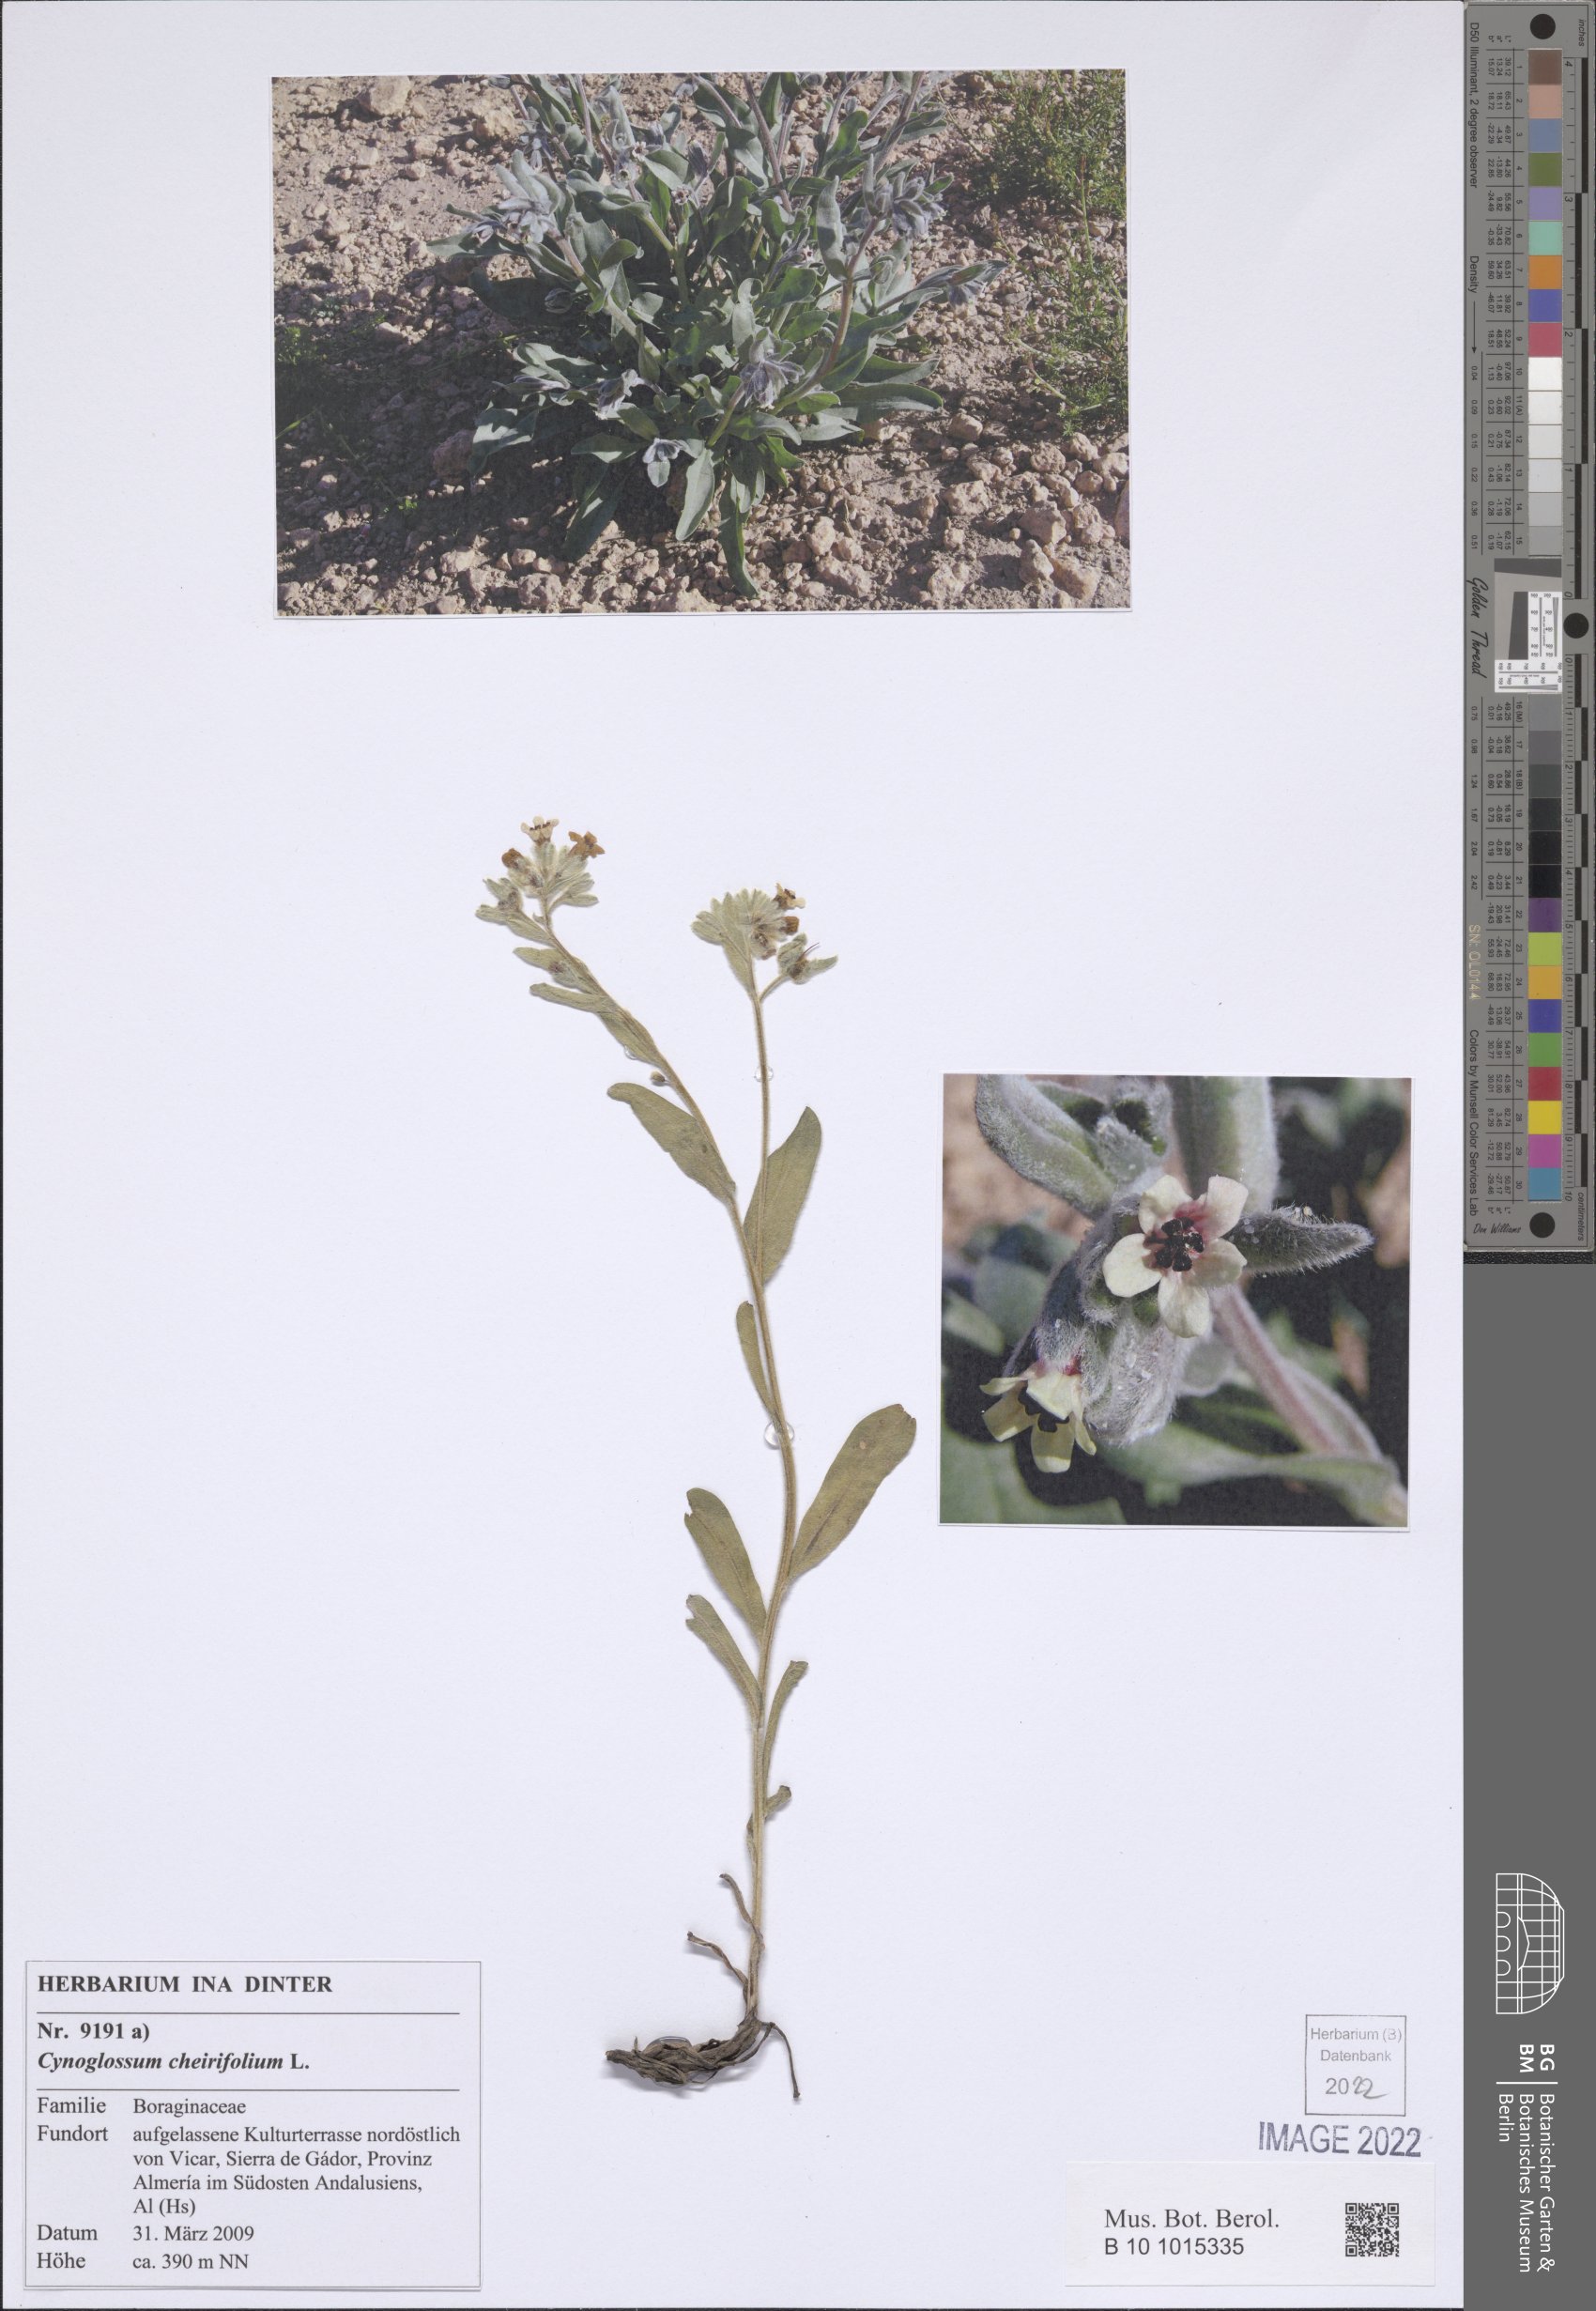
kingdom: Plantae
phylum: Tracheophyta
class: Magnoliopsida
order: Boraginales
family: Boraginaceae
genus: Pardoglossum
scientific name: Pardoglossum cheirifolium
